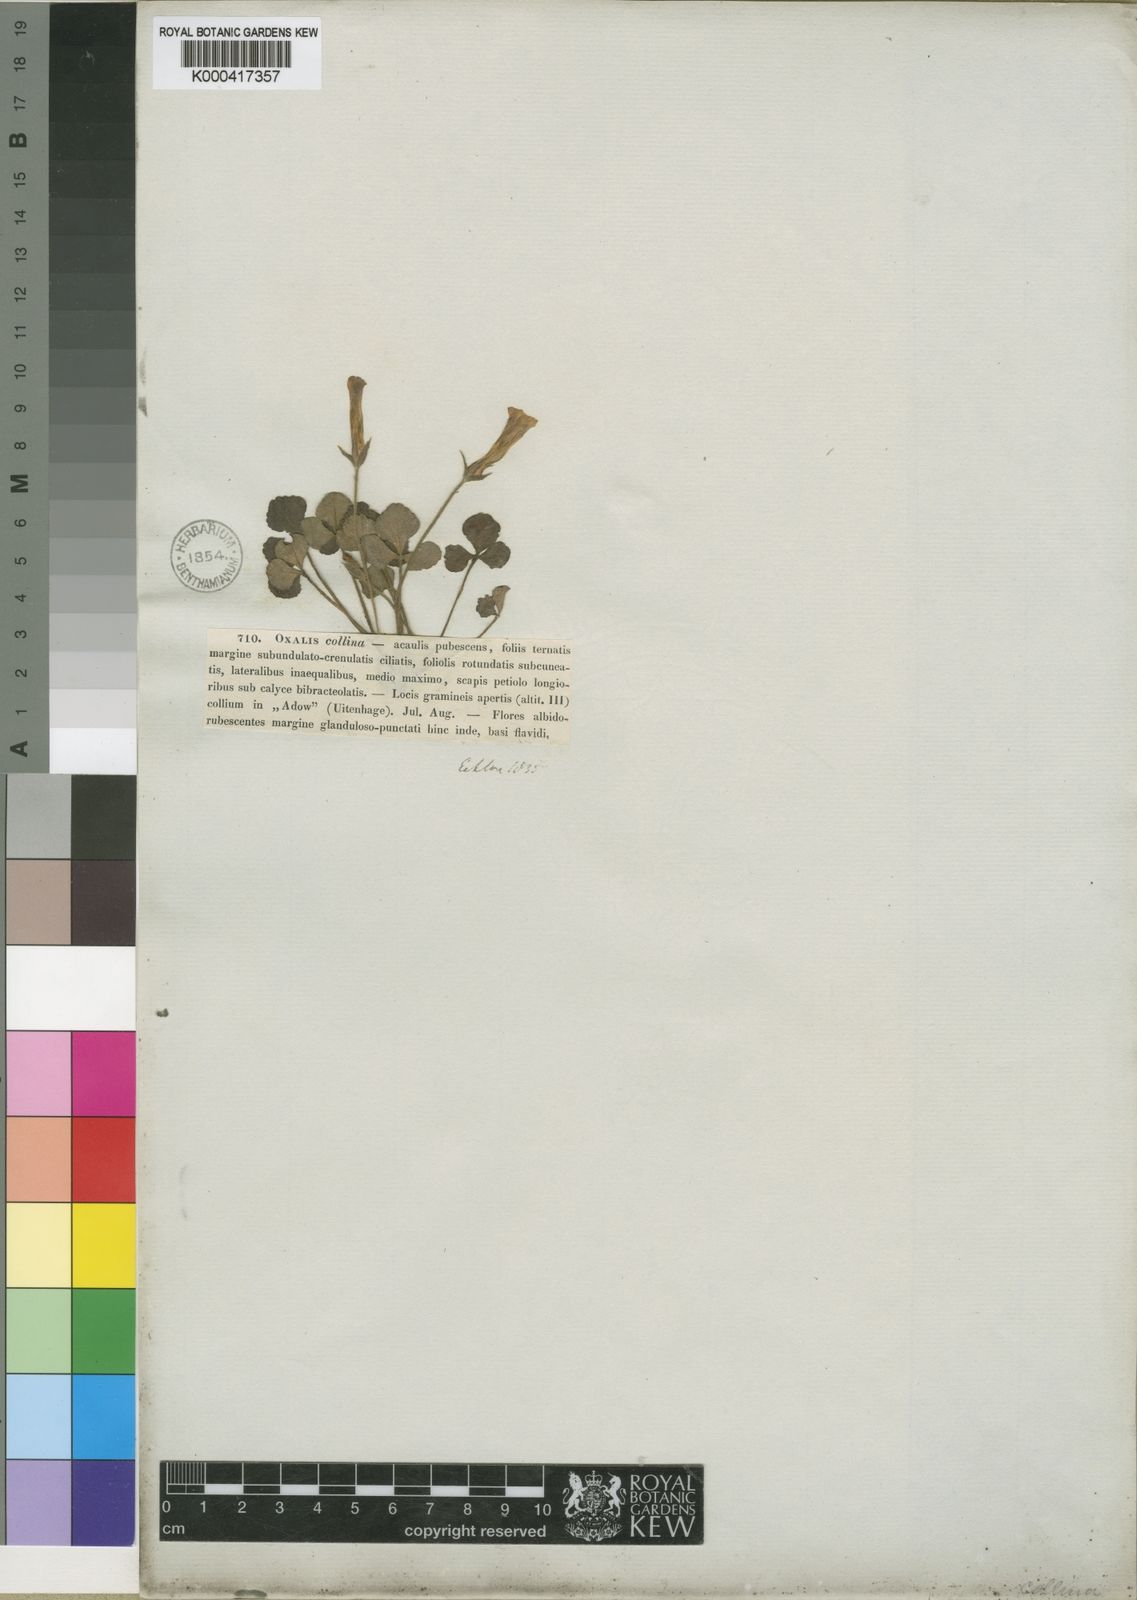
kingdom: Plantae
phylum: Tracheophyta
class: Magnoliopsida
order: Oxalidales
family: Oxalidaceae
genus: Oxalis
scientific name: Oxalis algoensis
